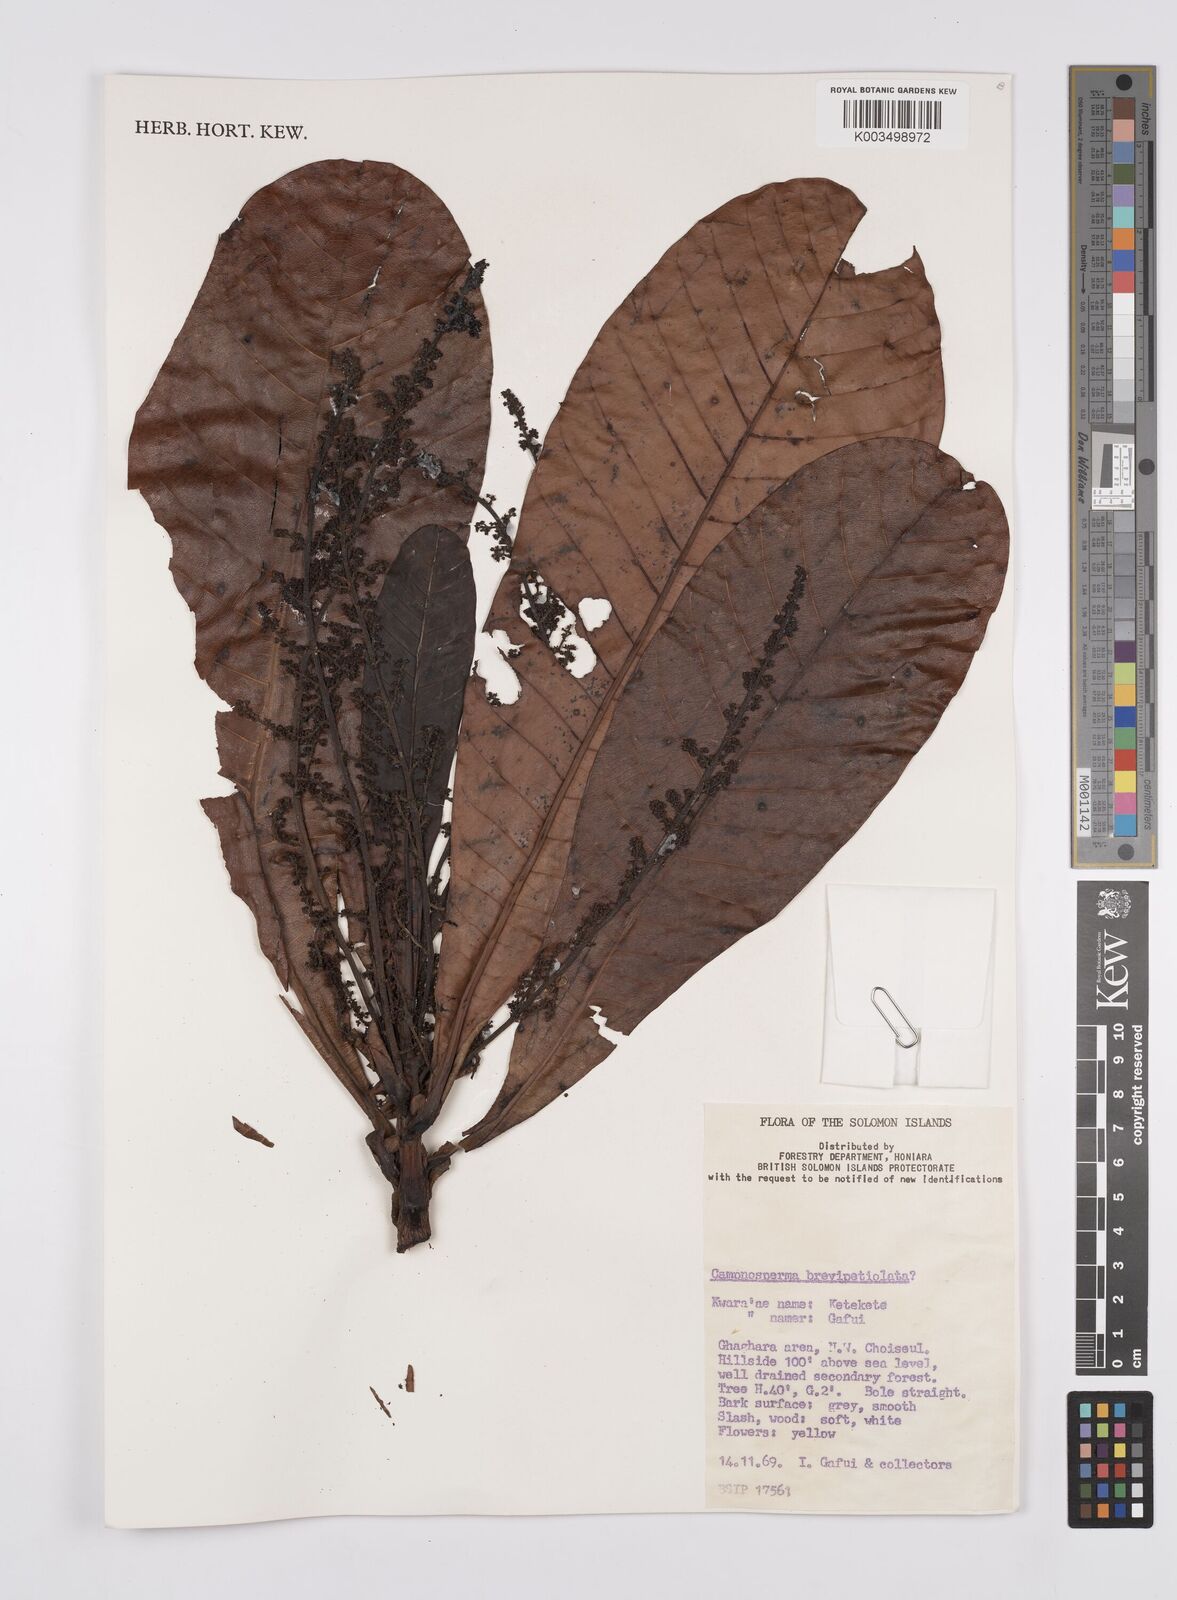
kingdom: Plantae
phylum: Tracheophyta
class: Magnoliopsida
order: Sapindales
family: Anacardiaceae
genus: Campnosperma
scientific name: Campnosperma brevipetiolatum
